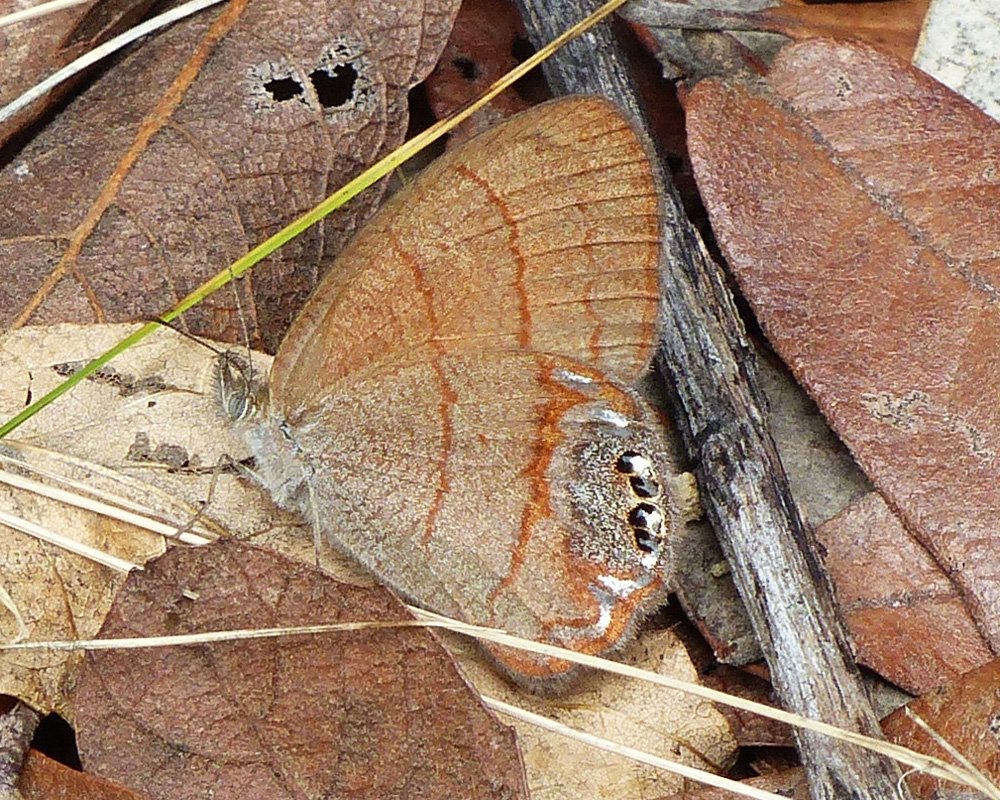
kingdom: Animalia
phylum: Arthropoda
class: Insecta
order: Lepidoptera
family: Nymphalidae
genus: Euptychia
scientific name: Euptychia pyracmon
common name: Nabokov's Satyr
